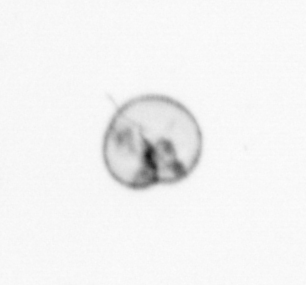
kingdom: Chromista
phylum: Myzozoa
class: Dinophyceae
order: Noctilucales
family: Noctilucaceae
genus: Noctiluca
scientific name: Noctiluca scintillans
